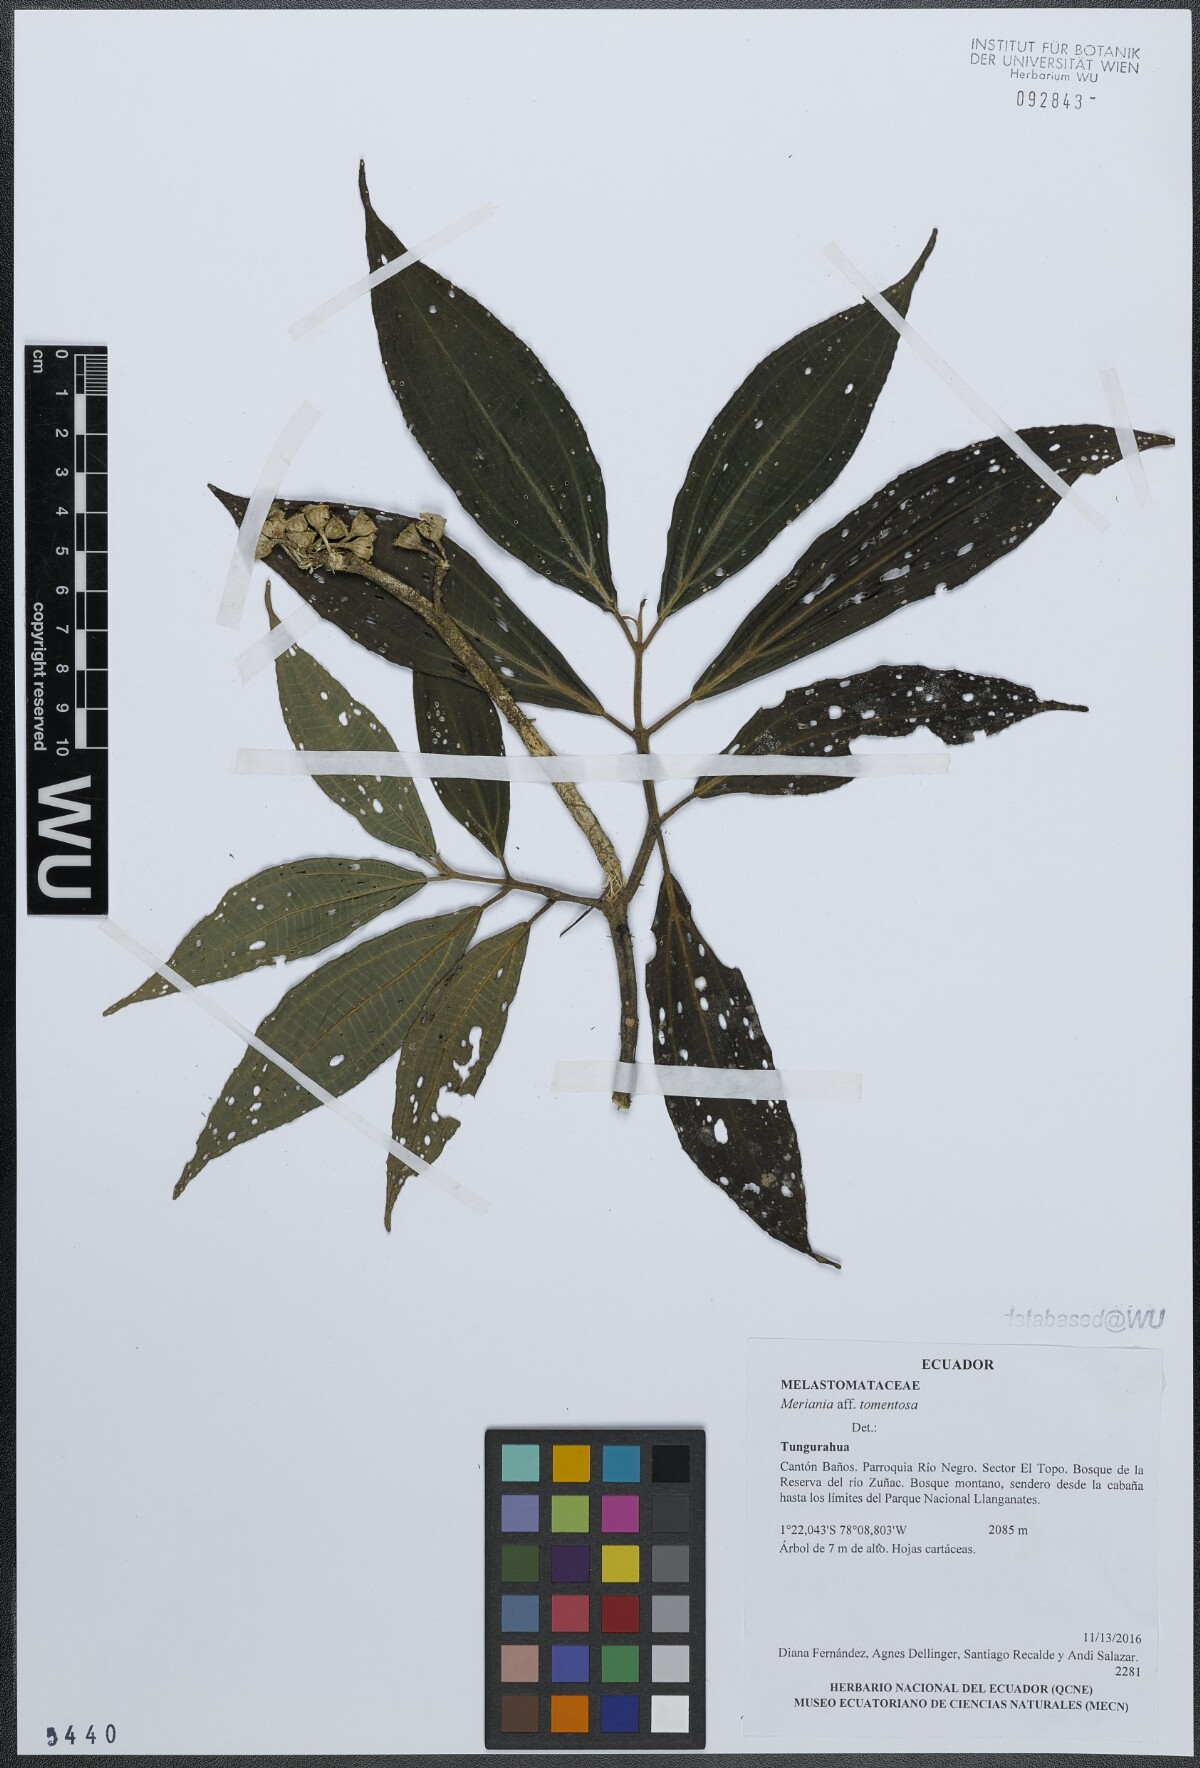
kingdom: Plantae
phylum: Tracheophyta
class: Magnoliopsida
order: Myrtales
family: Melastomataceae
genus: Meriania
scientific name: Meriania tomentosa
